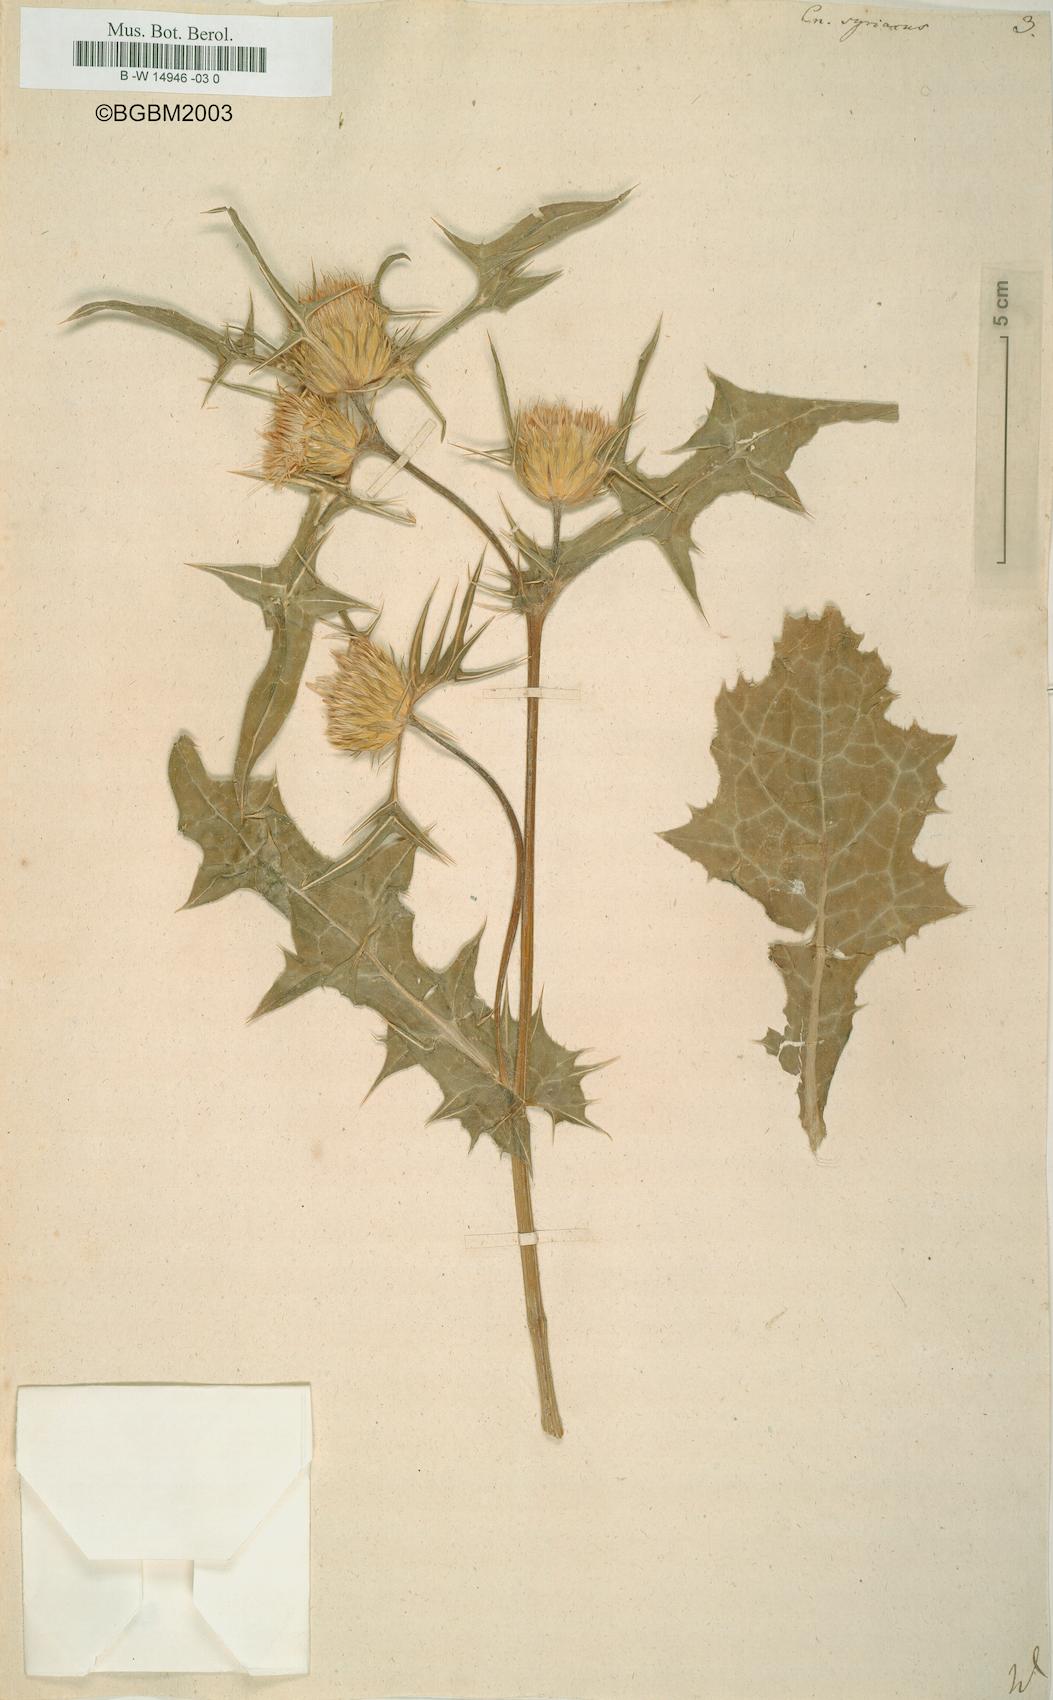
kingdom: Plantae
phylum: Tracheophyta
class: Magnoliopsida
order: Asterales
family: Asteraceae
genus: Notobasis
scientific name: Notobasis syriaca
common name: Syrian thistle
